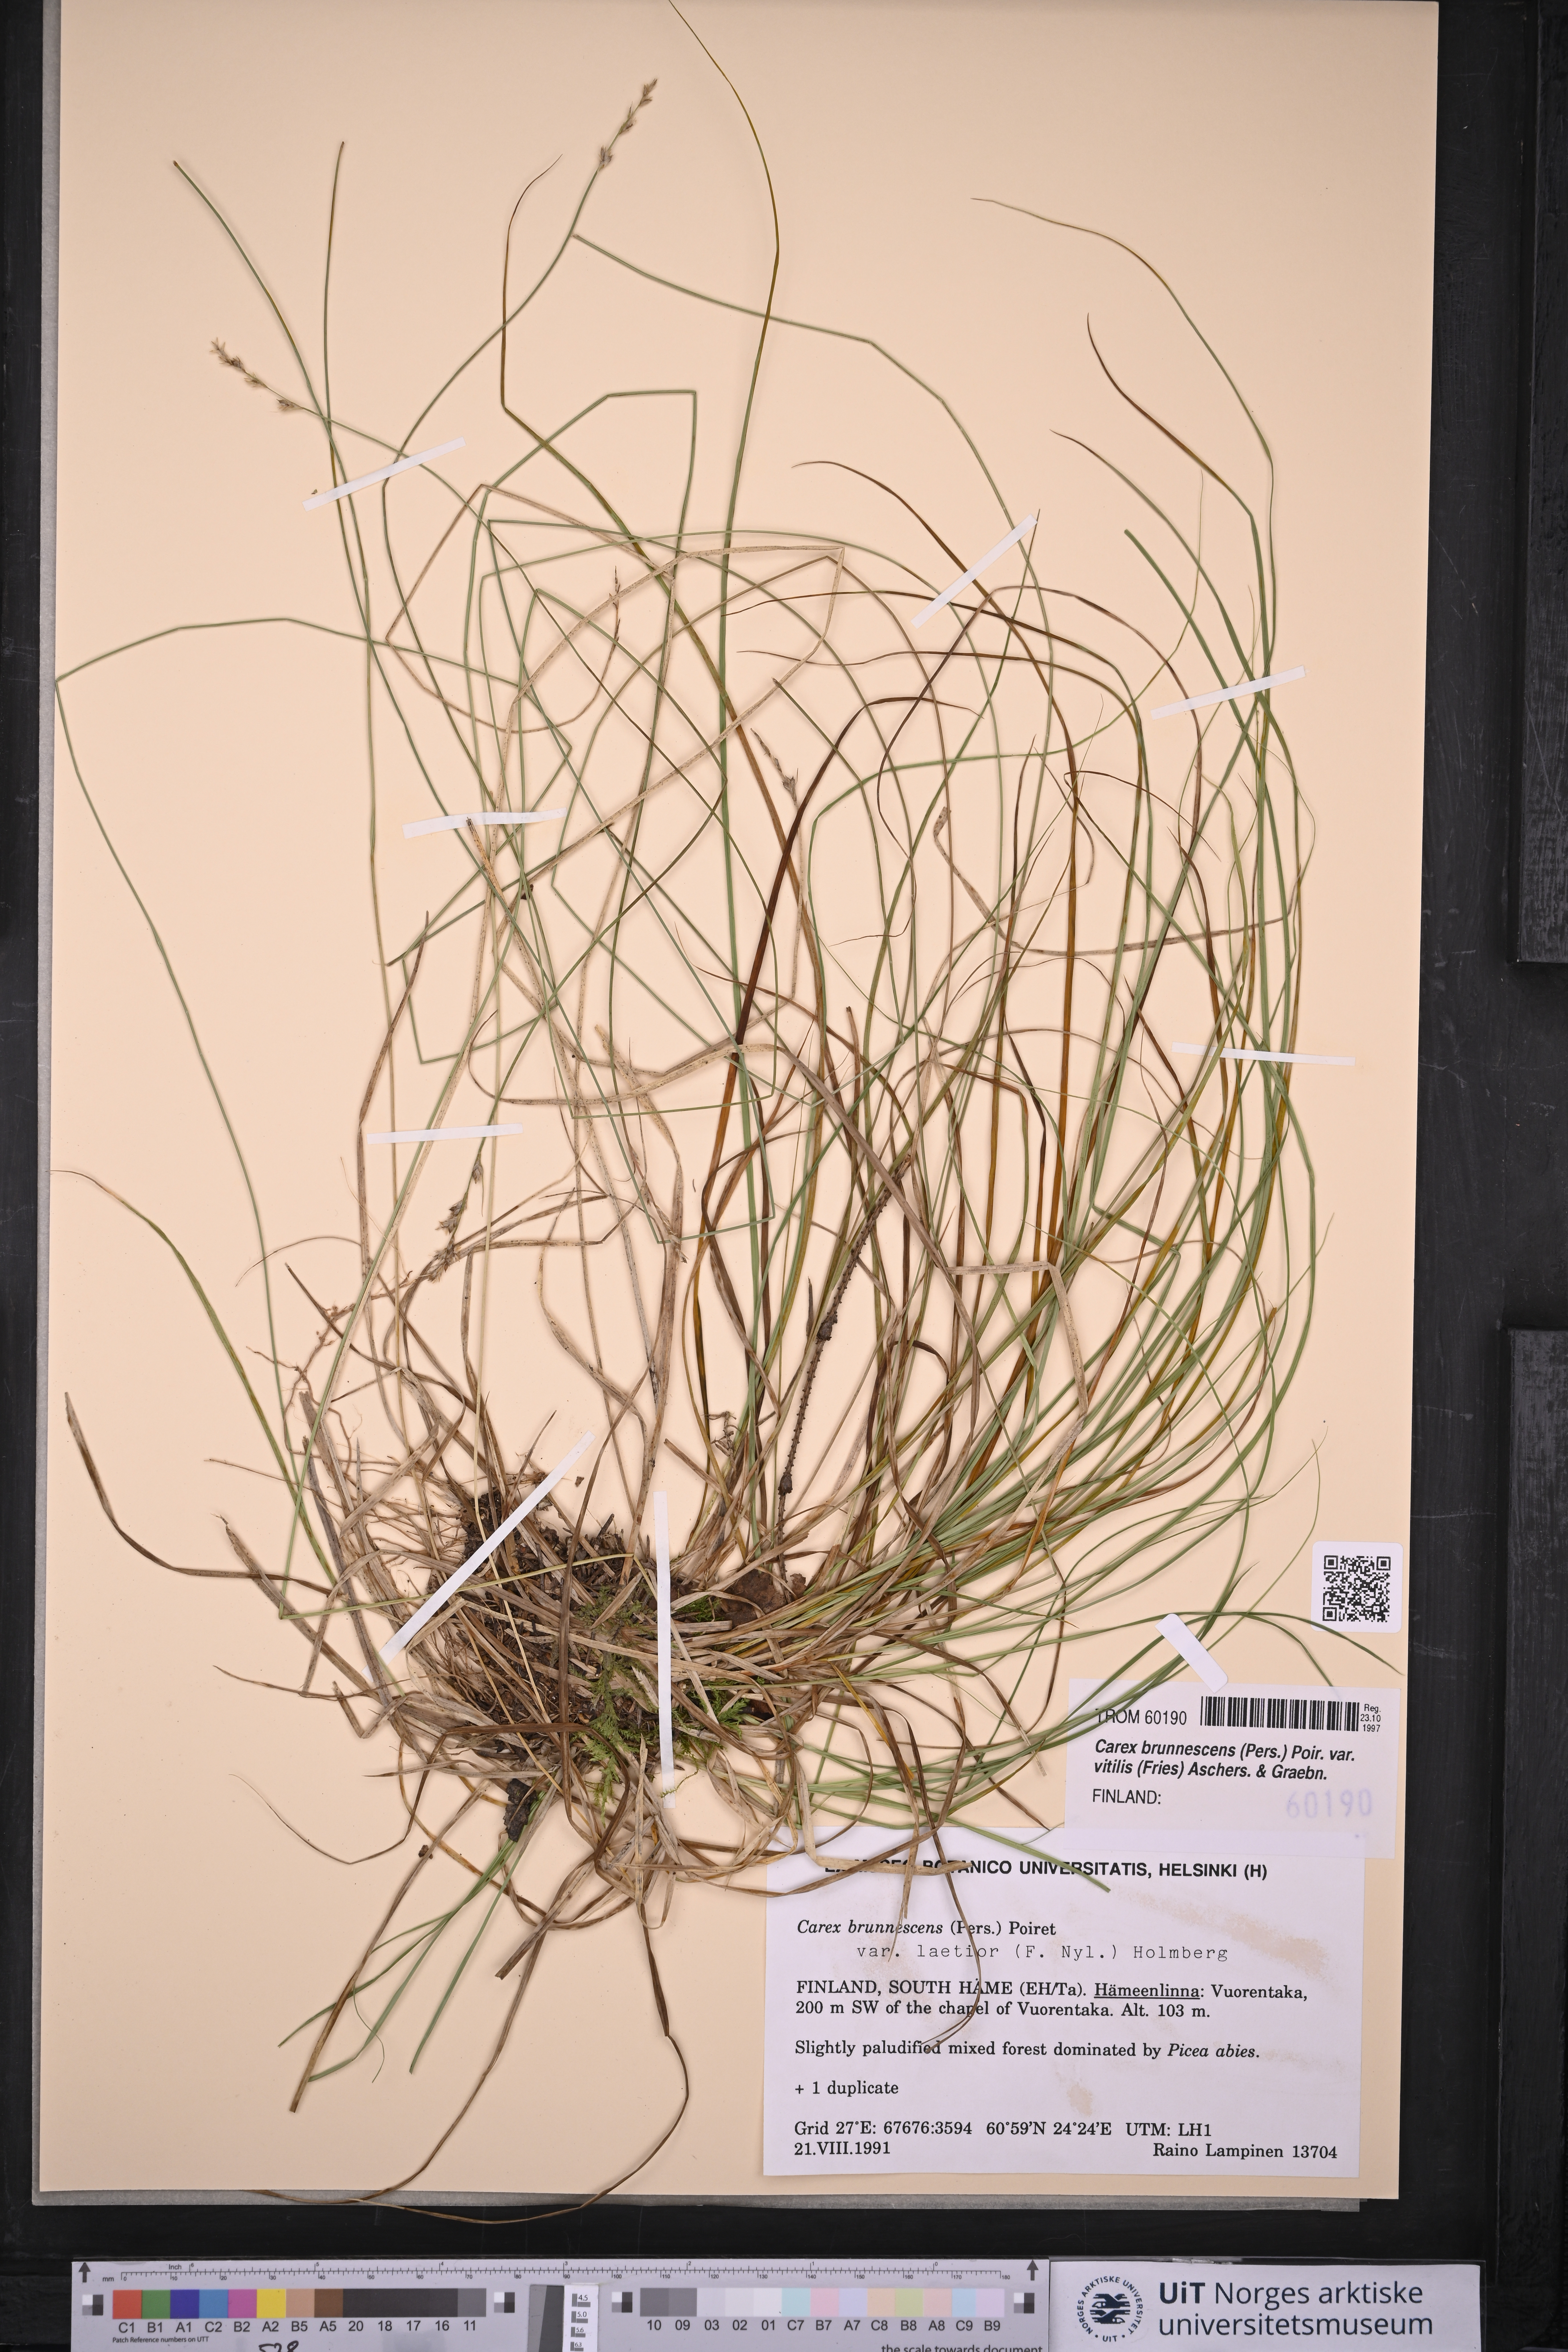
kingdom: Plantae
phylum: Tracheophyta
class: Liliopsida
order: Poales
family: Cyperaceae
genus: Carex
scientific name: Carex brunnescens
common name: Brown sedge
